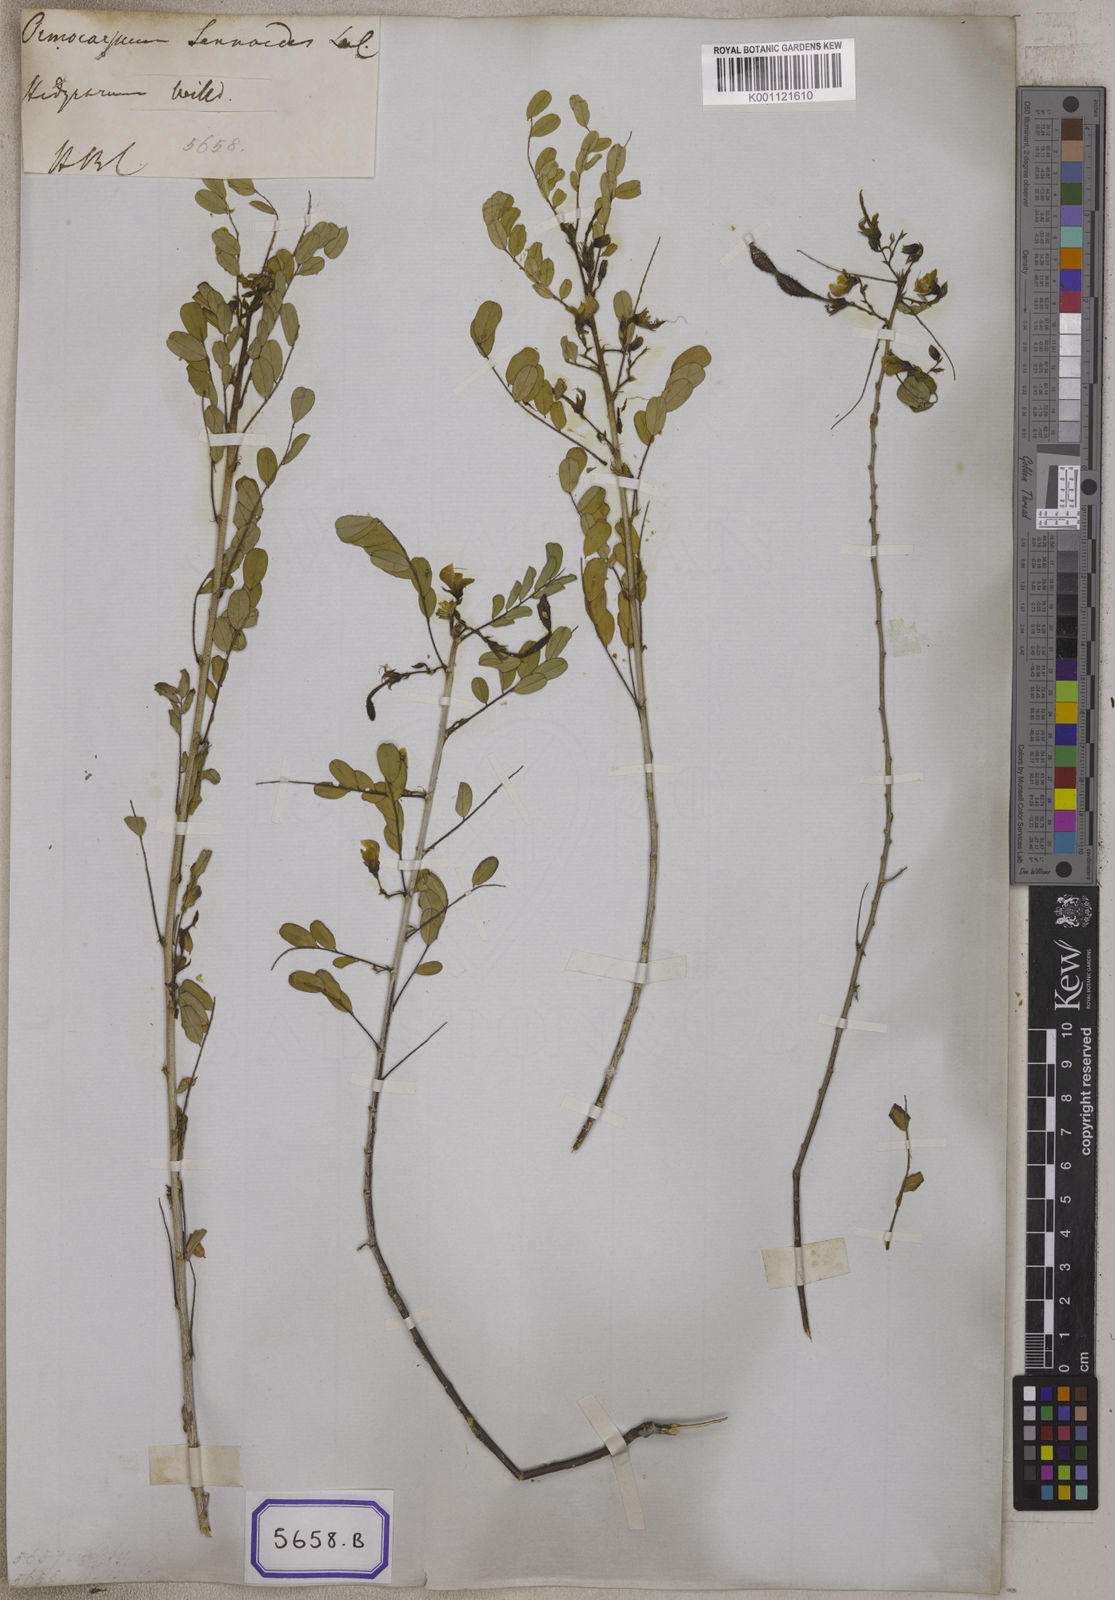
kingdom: Plantae
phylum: Tracheophyta
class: Magnoliopsida
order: Fabales
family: Fabaceae
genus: Ormocarpum
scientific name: Ormocarpum sennoides
